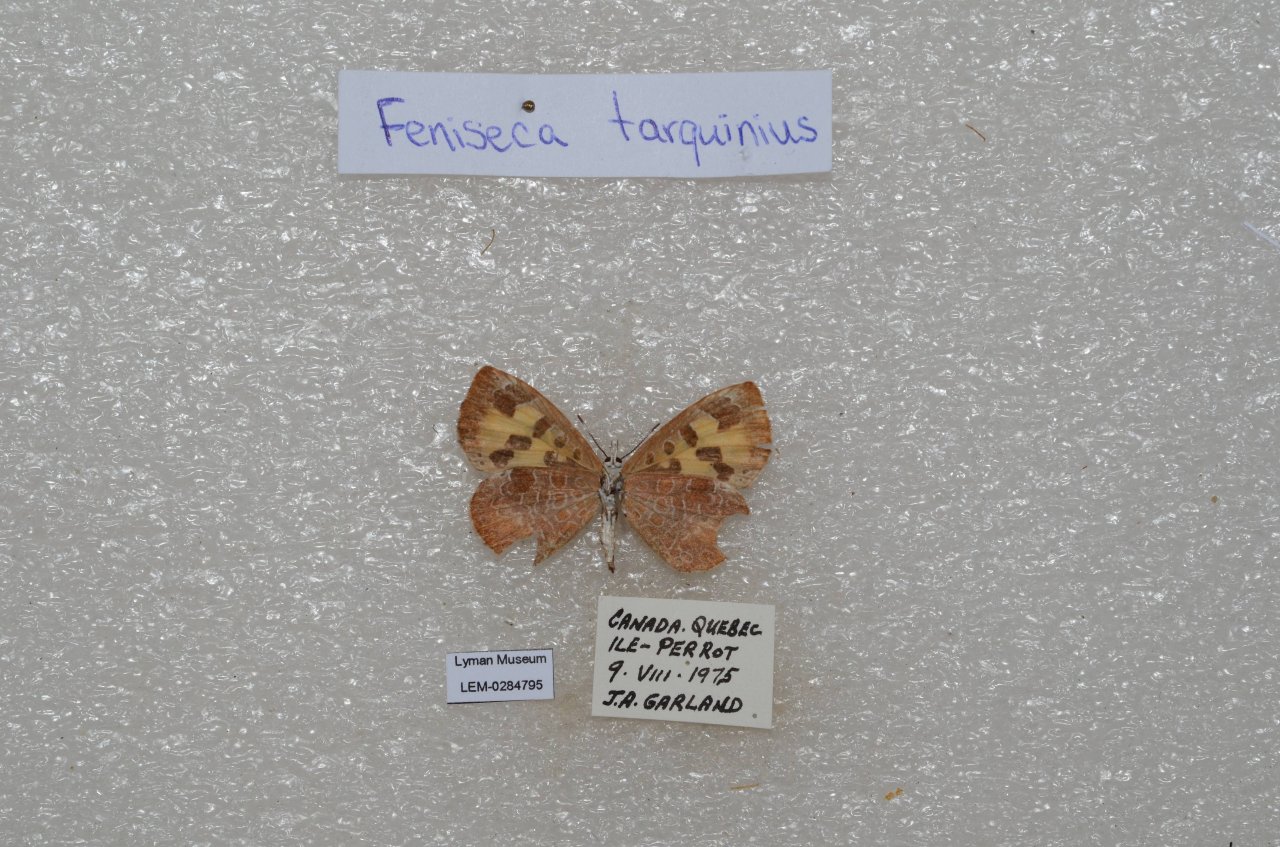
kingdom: Animalia
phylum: Arthropoda
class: Insecta
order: Lepidoptera
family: Lycaenidae
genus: Feniseca
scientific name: Feniseca tarquinius
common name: Harvester
